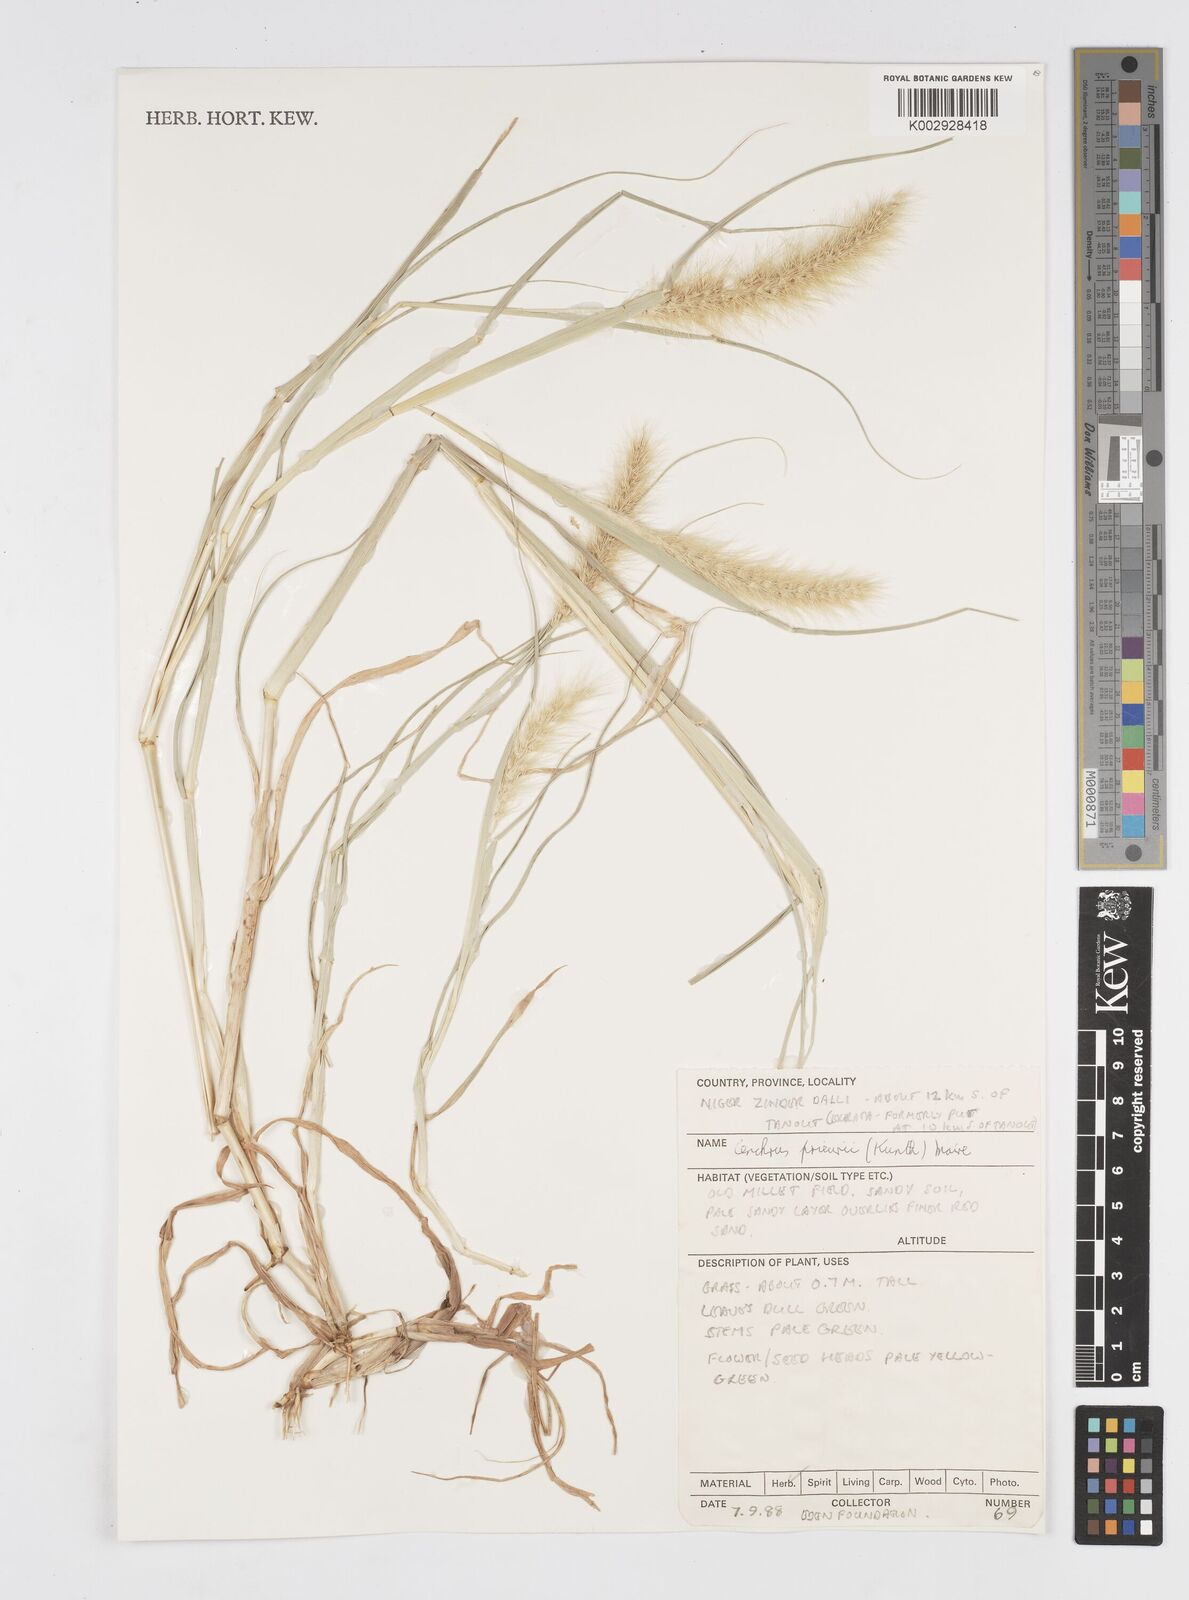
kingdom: Plantae
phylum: Tracheophyta
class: Liliopsida
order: Poales
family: Poaceae
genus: Cenchrus
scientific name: Cenchrus prieurii
